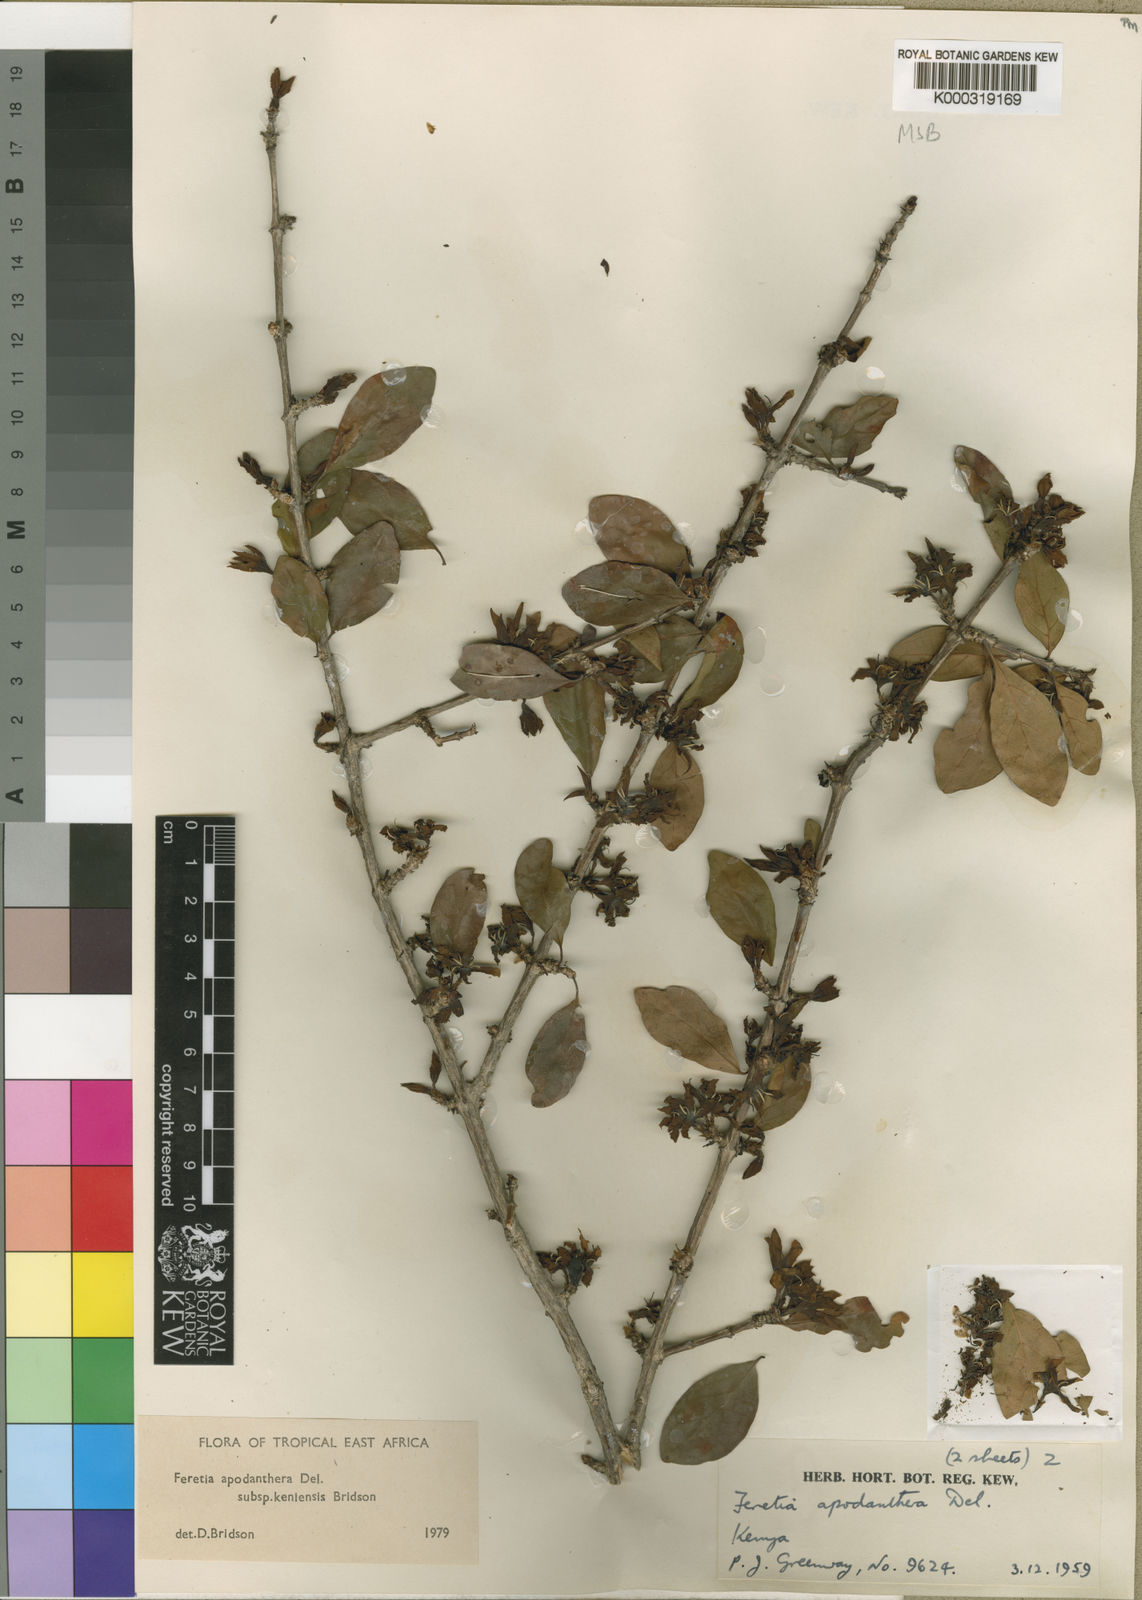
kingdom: Plantae
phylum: Tracheophyta
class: Magnoliopsida
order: Gentianales
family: Rubiaceae
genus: Feretia
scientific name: Feretia apodanthera
